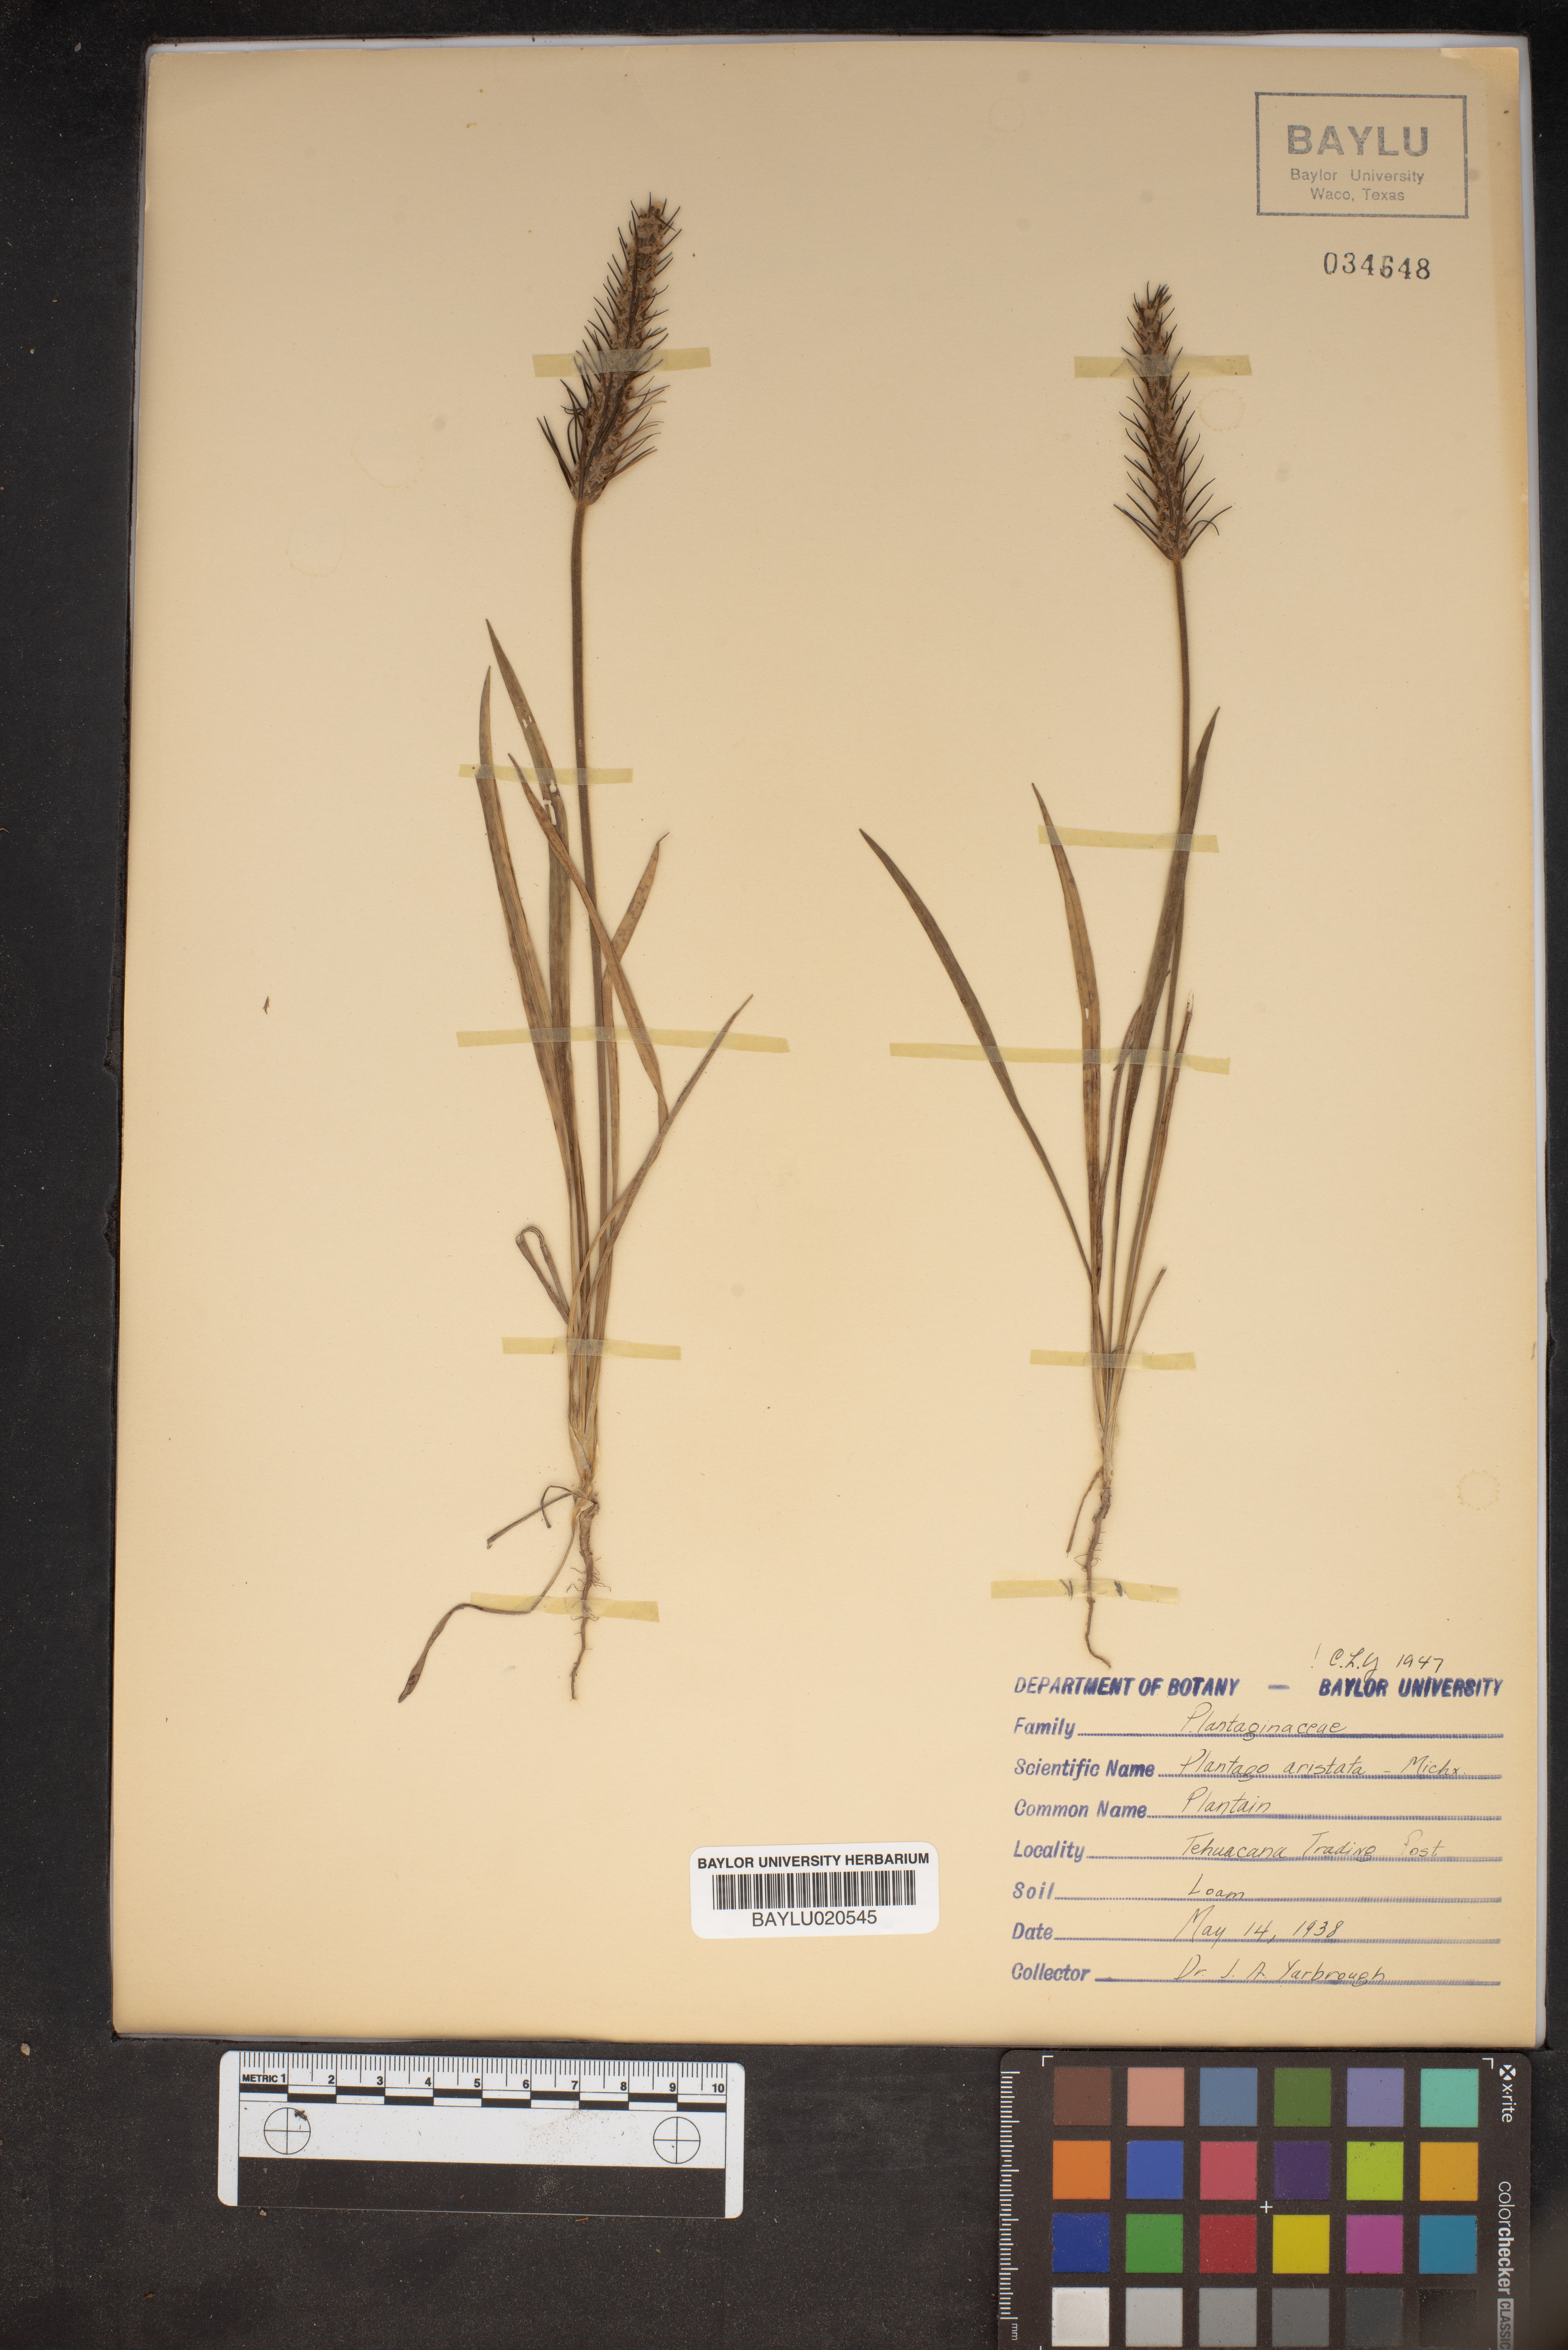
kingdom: Plantae
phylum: Tracheophyta
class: Magnoliopsida
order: Lamiales
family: Plantaginaceae
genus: Plantago
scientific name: Plantago aristata
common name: Bracted plantain
